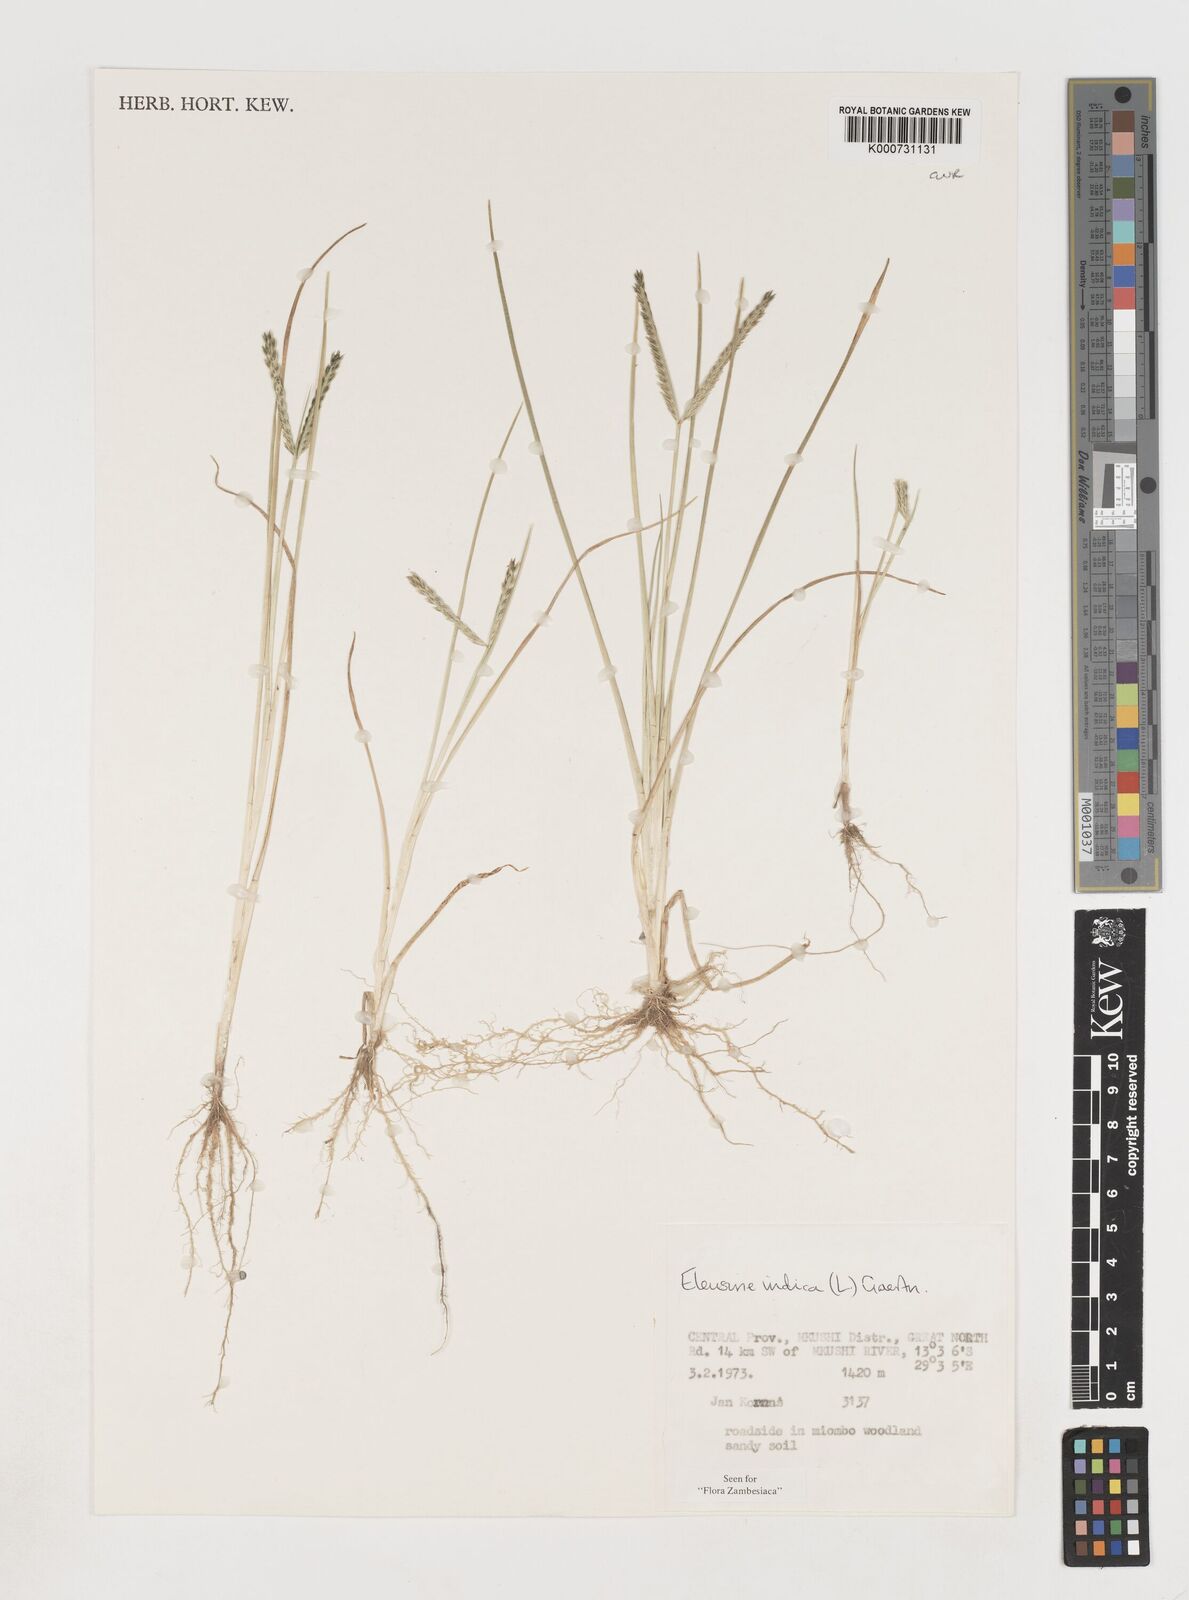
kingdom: Plantae
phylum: Tracheophyta
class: Liliopsida
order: Poales
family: Poaceae
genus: Eleusine
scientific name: Eleusine indica
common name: Yard-grass
